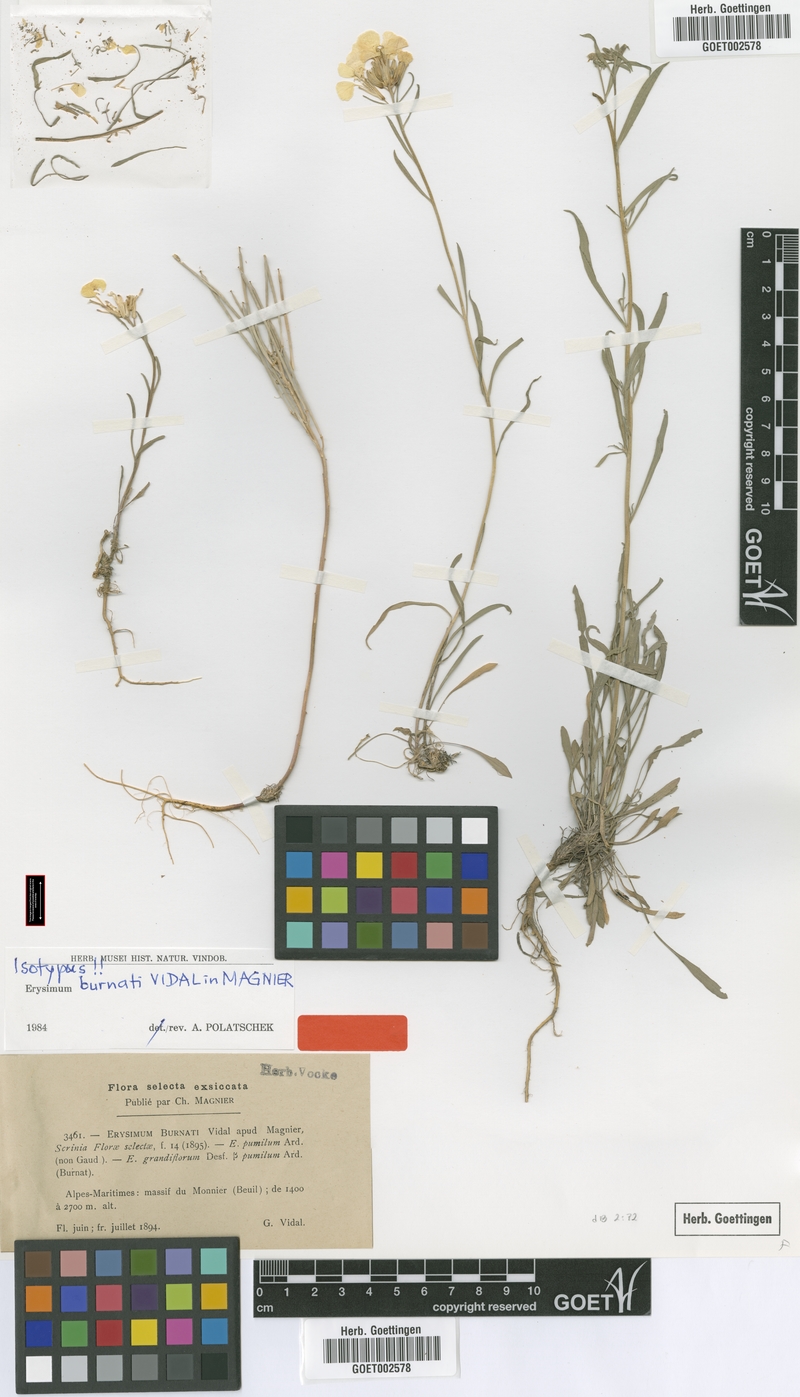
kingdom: Plantae
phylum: Tracheophyta
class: Magnoliopsida
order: Brassicales
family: Brassicaceae
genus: Erysimum
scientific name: Erysimum burnatii
